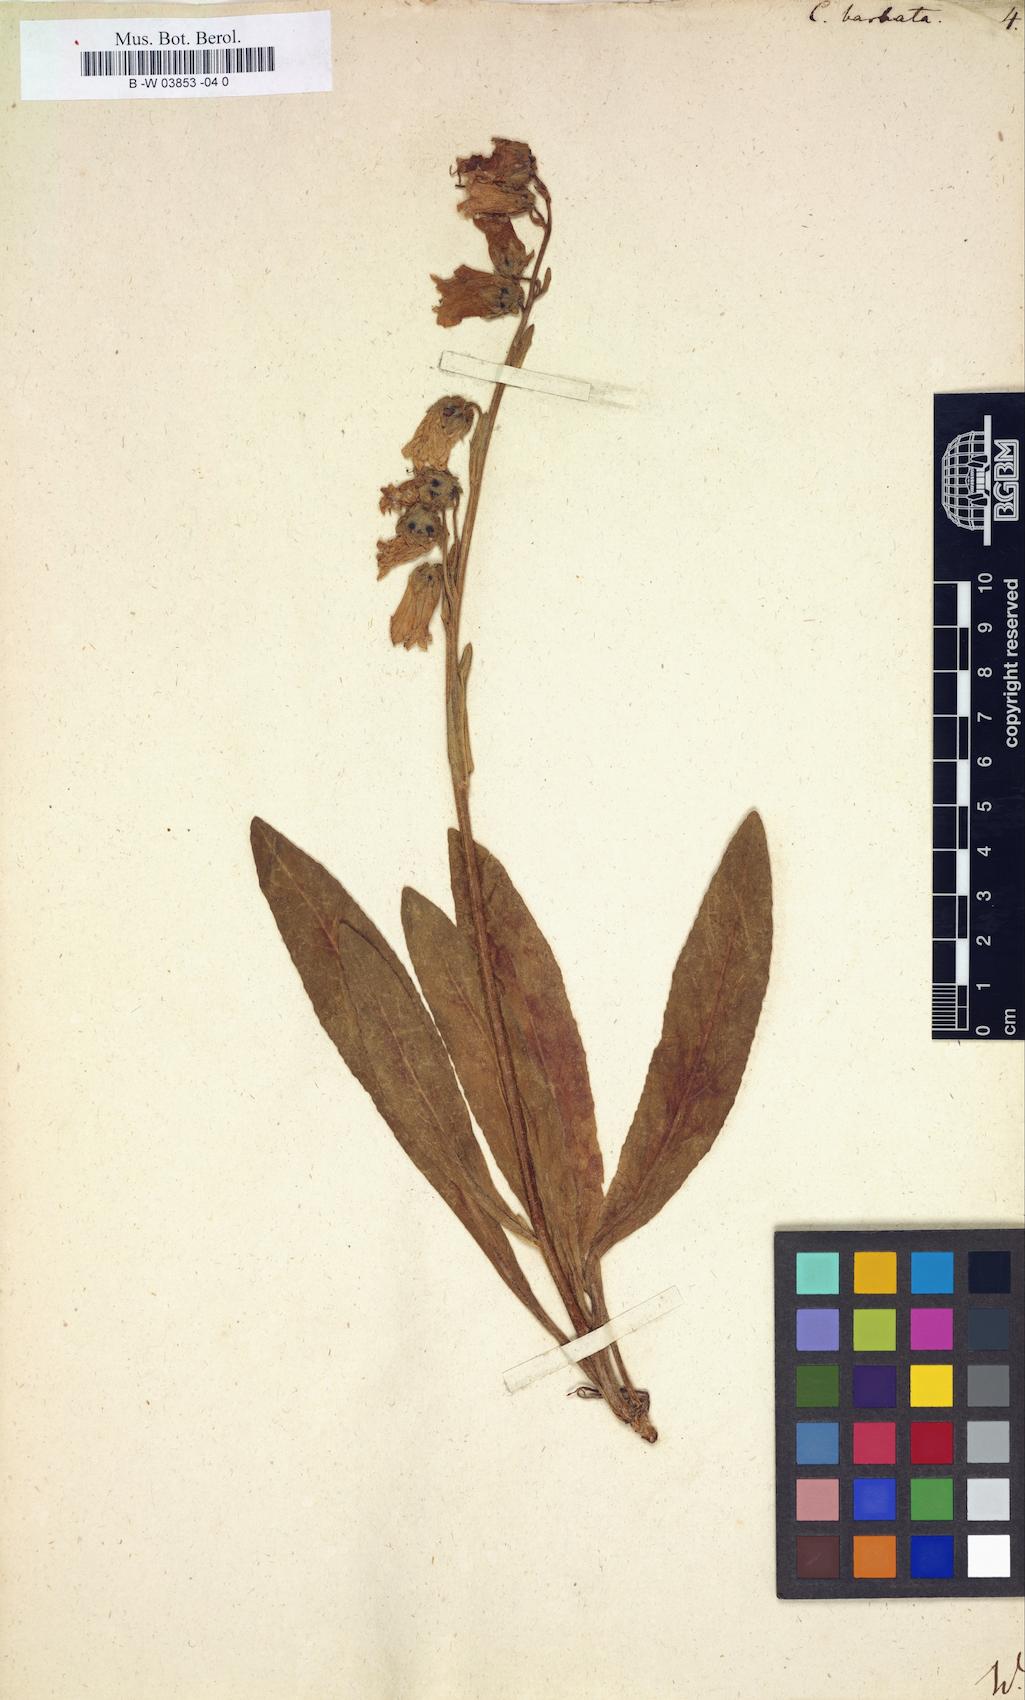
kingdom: Plantae
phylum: Tracheophyta
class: Magnoliopsida
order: Asterales
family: Campanulaceae
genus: Campanula
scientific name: Campanula barbata
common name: Bearded bellflower
